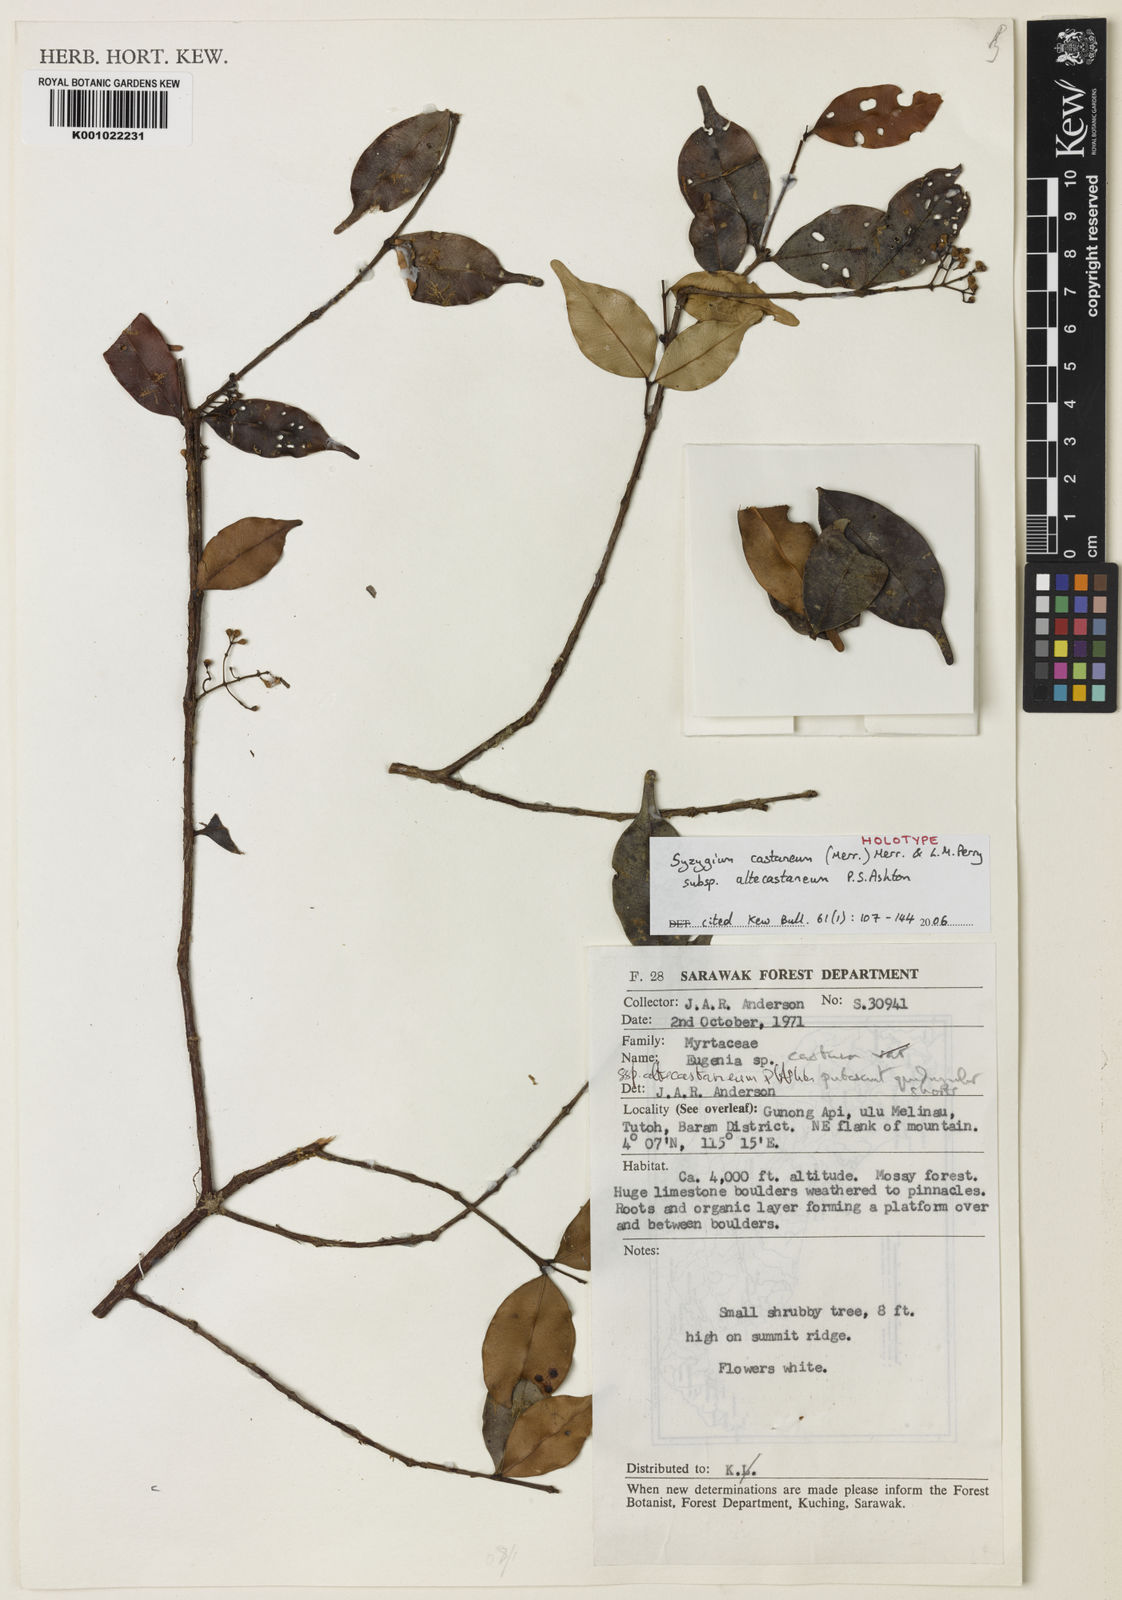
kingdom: Plantae
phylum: Tracheophyta
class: Magnoliopsida
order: Myrtales
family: Myrtaceae
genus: Syzygium
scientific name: Syzygium castaneum
